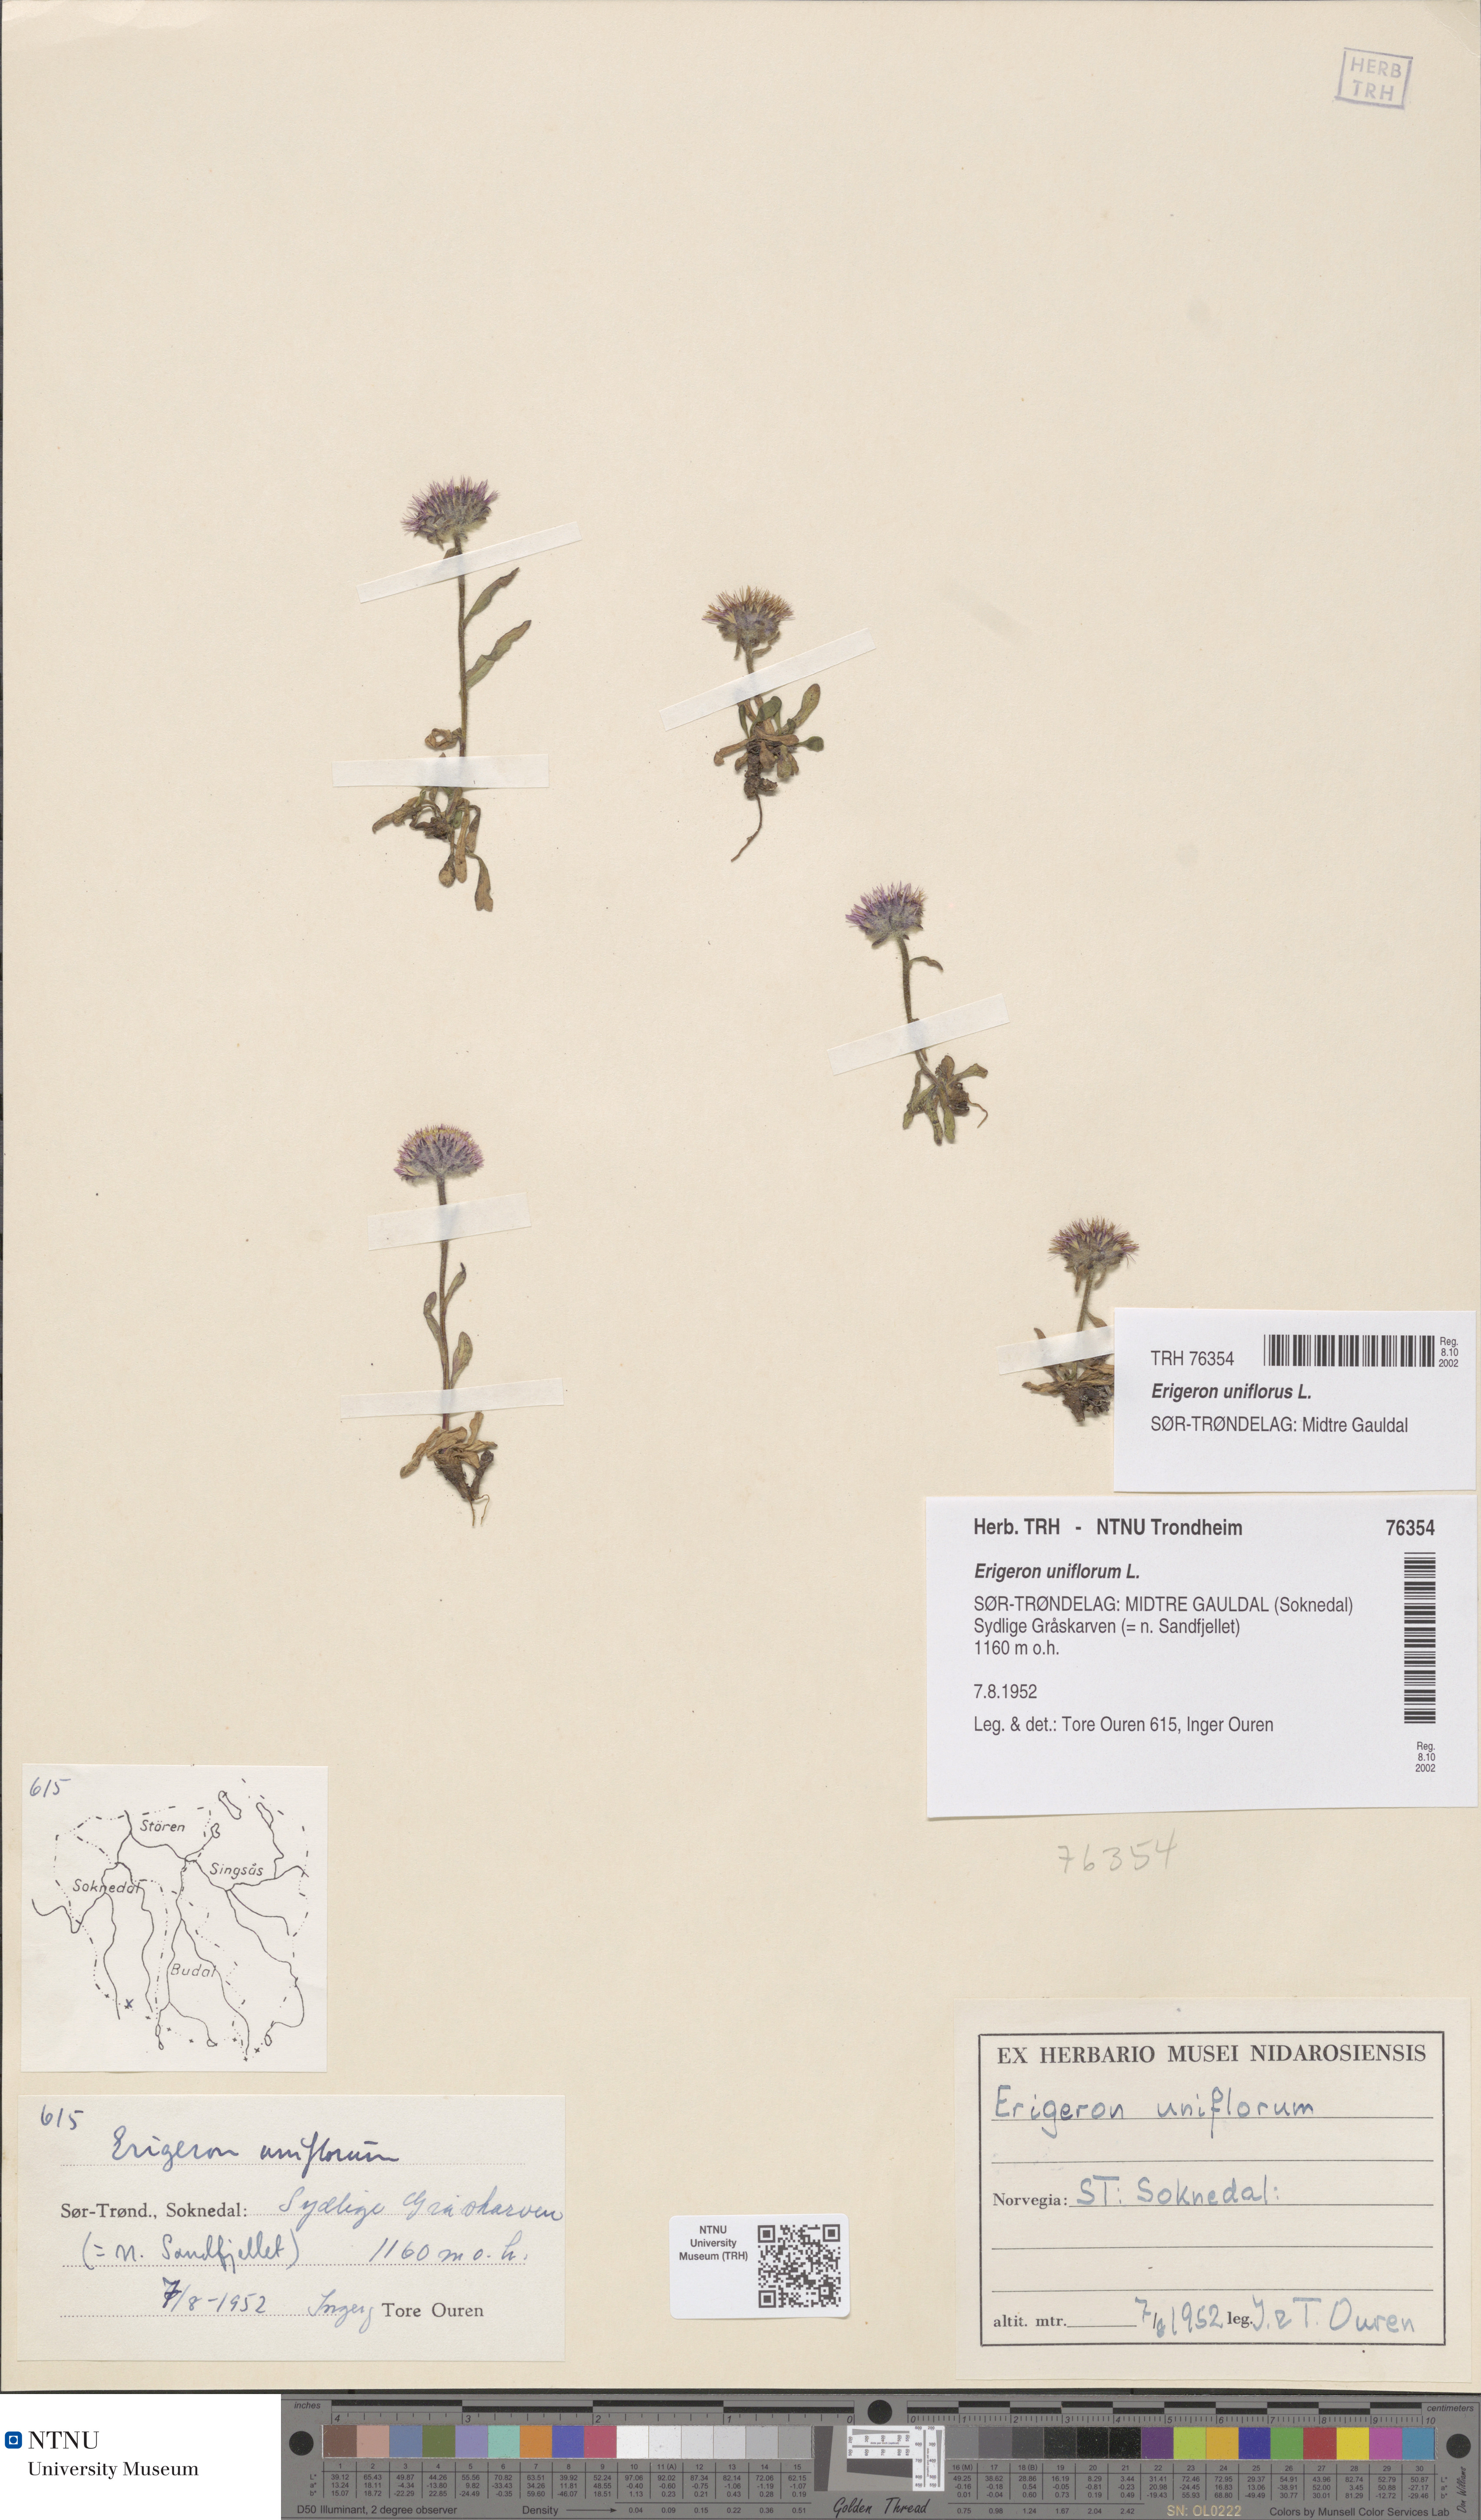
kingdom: Plantae
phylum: Tracheophyta
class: Magnoliopsida
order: Asterales
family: Asteraceae
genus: Erigeron
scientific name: Erigeron uniflorus
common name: Northern daisy
